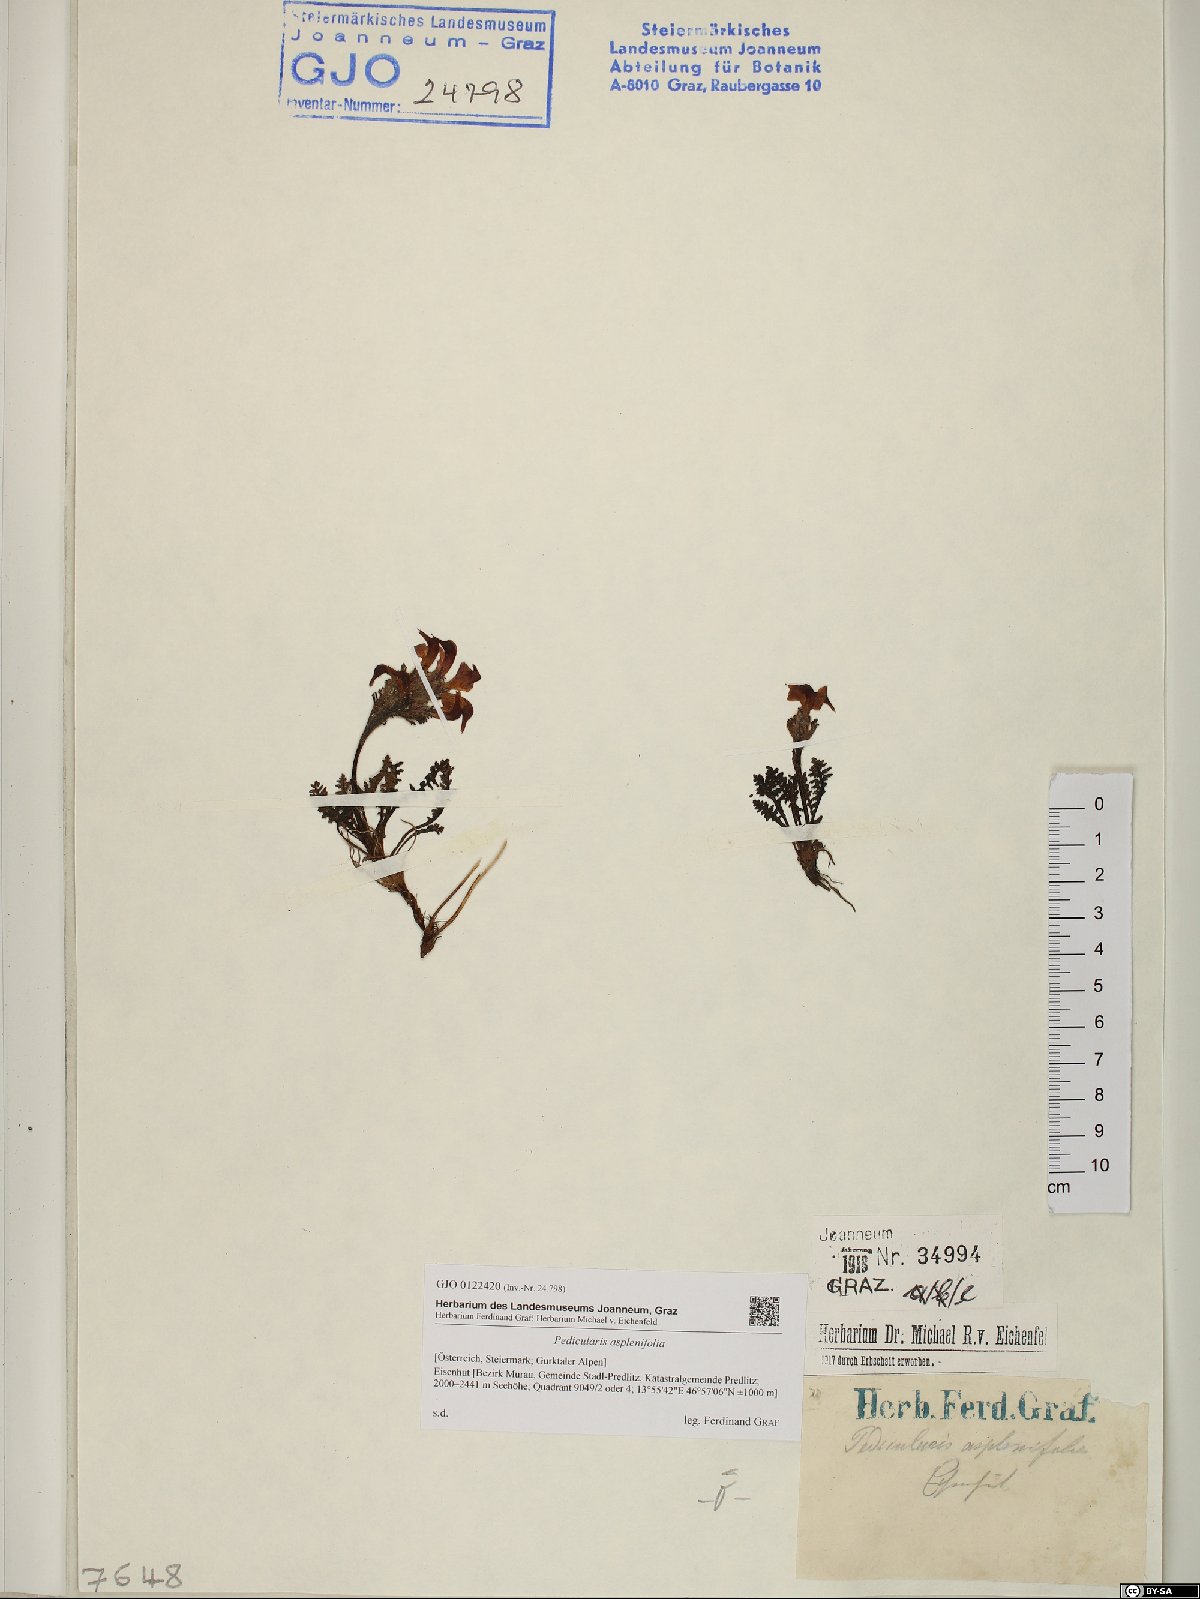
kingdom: Plantae
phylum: Tracheophyta
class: Magnoliopsida
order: Lamiales
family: Orobanchaceae
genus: Pedicularis
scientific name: Pedicularis asplenifolia
